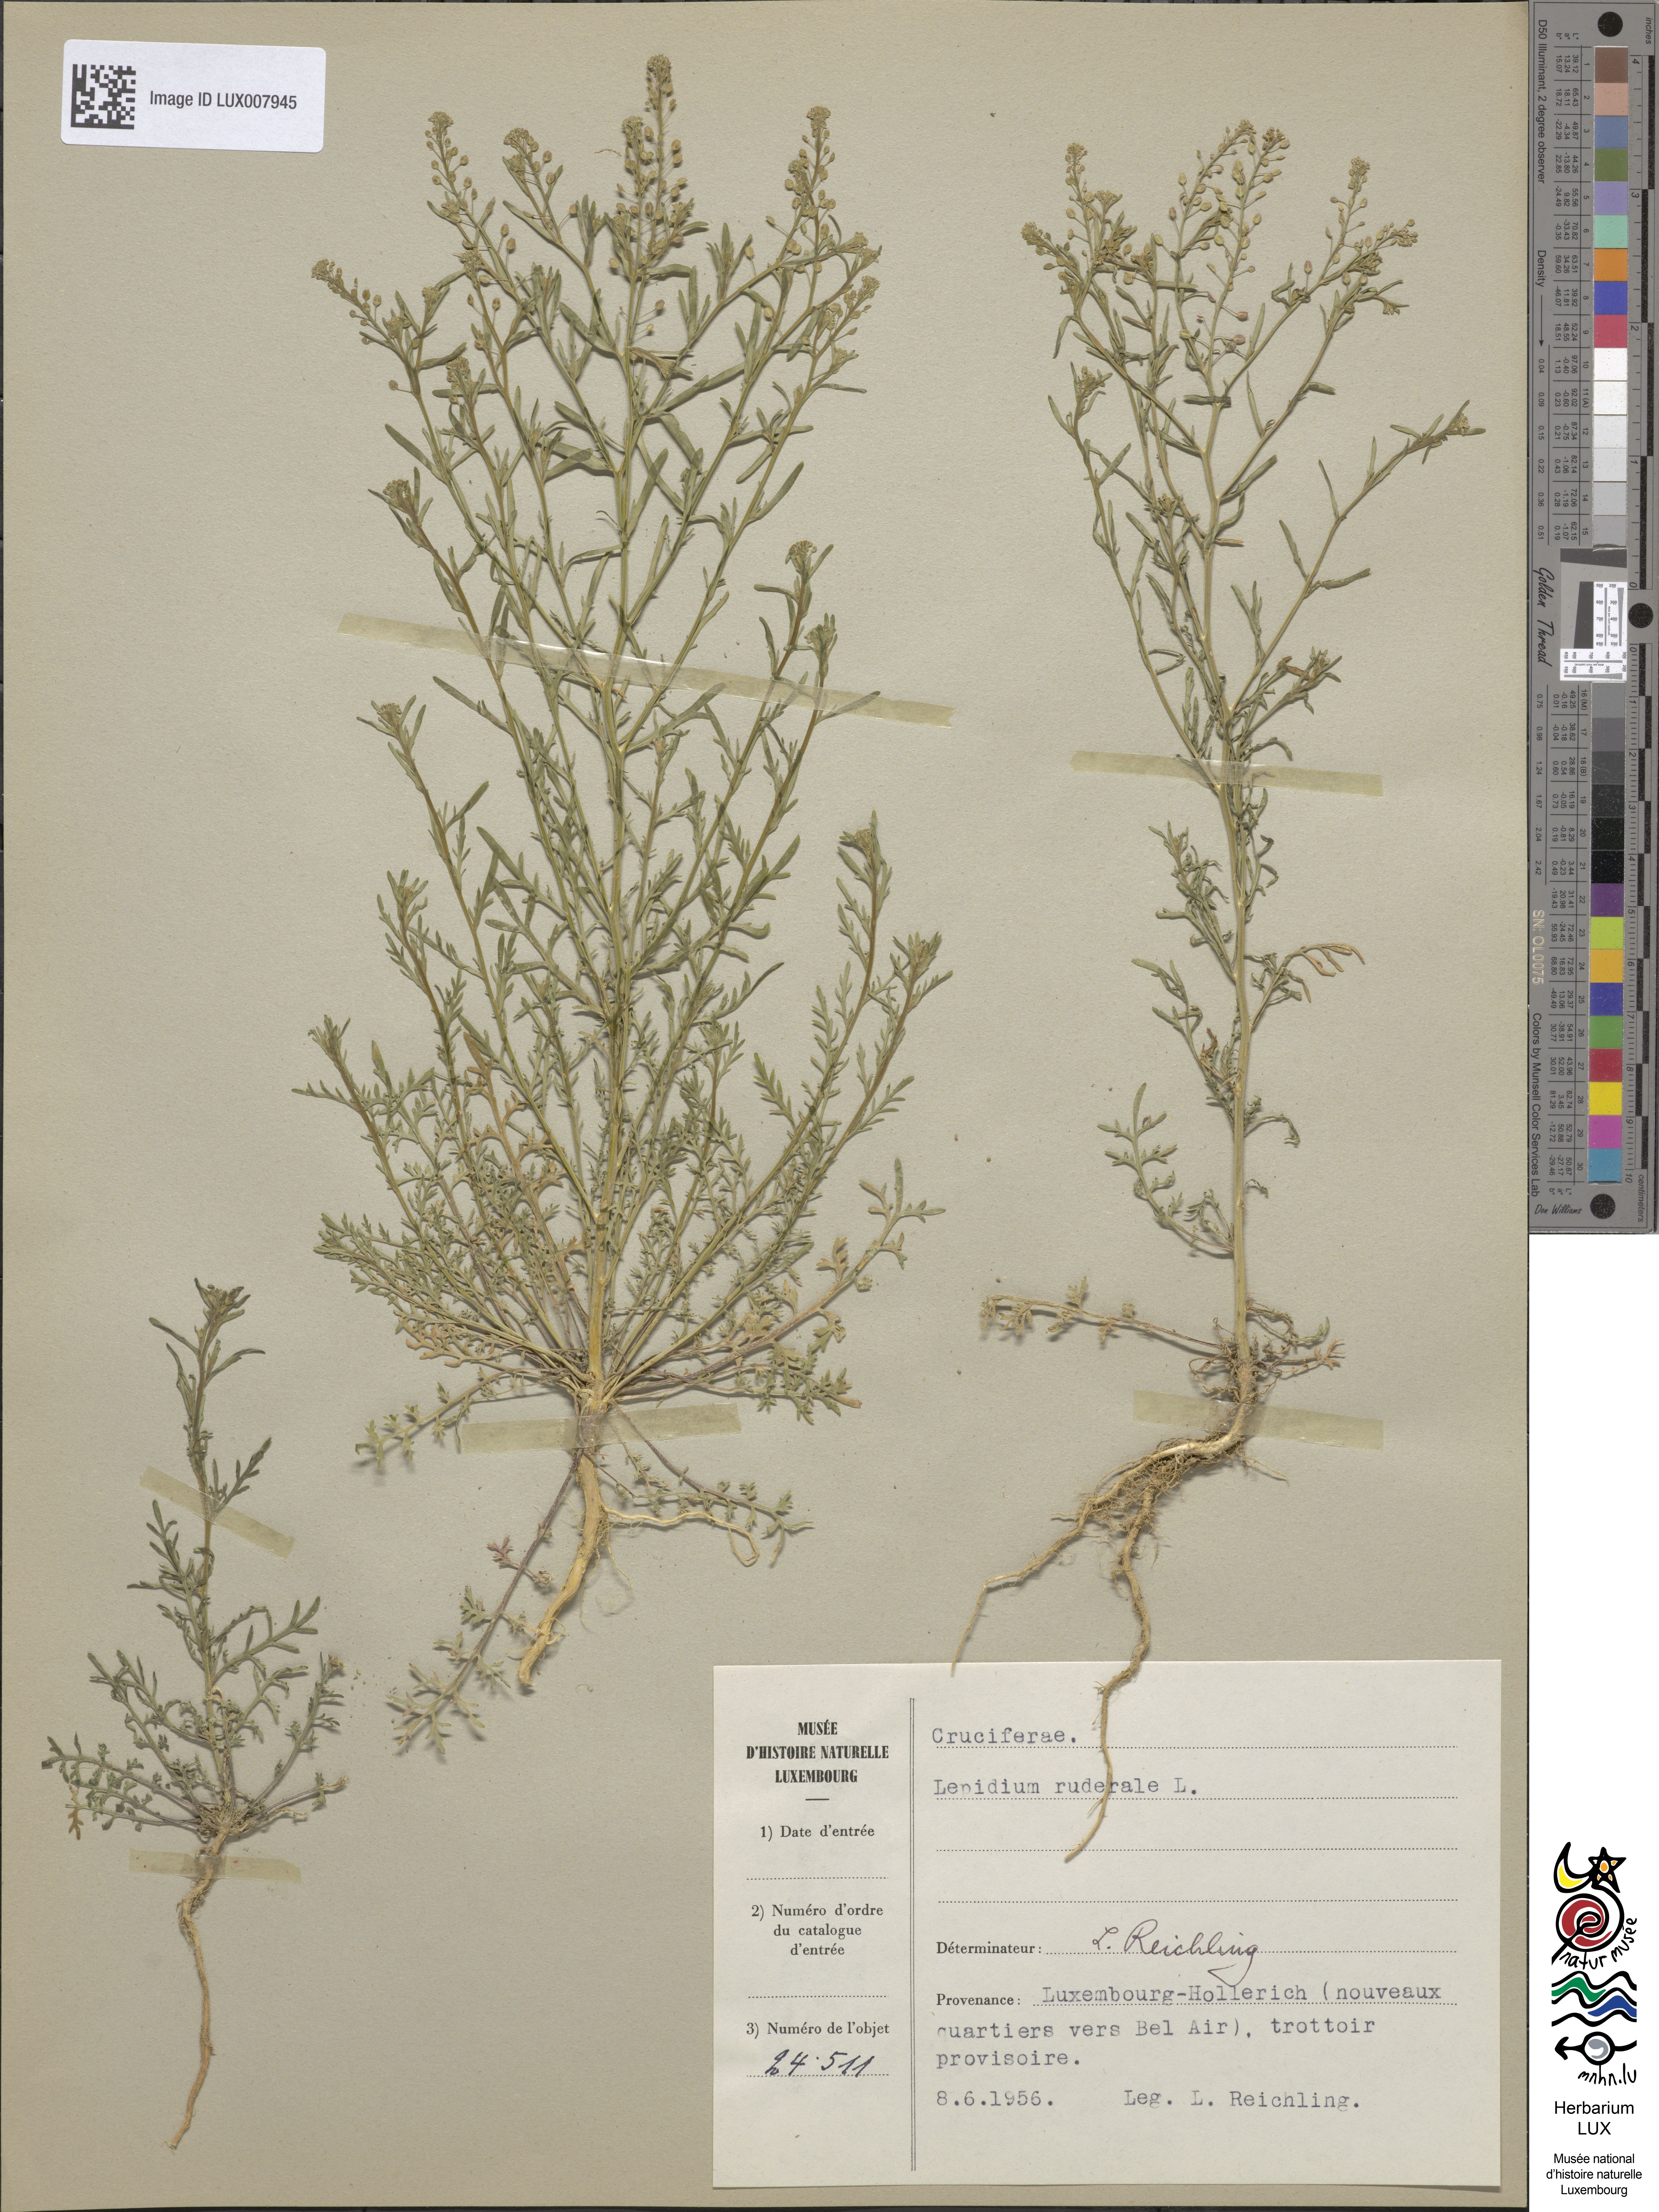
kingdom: Plantae
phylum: Tracheophyta
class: Magnoliopsida
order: Brassicales
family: Brassicaceae
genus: Lepidium
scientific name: Lepidium ruderale
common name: Narrow-leaved pepperwort
